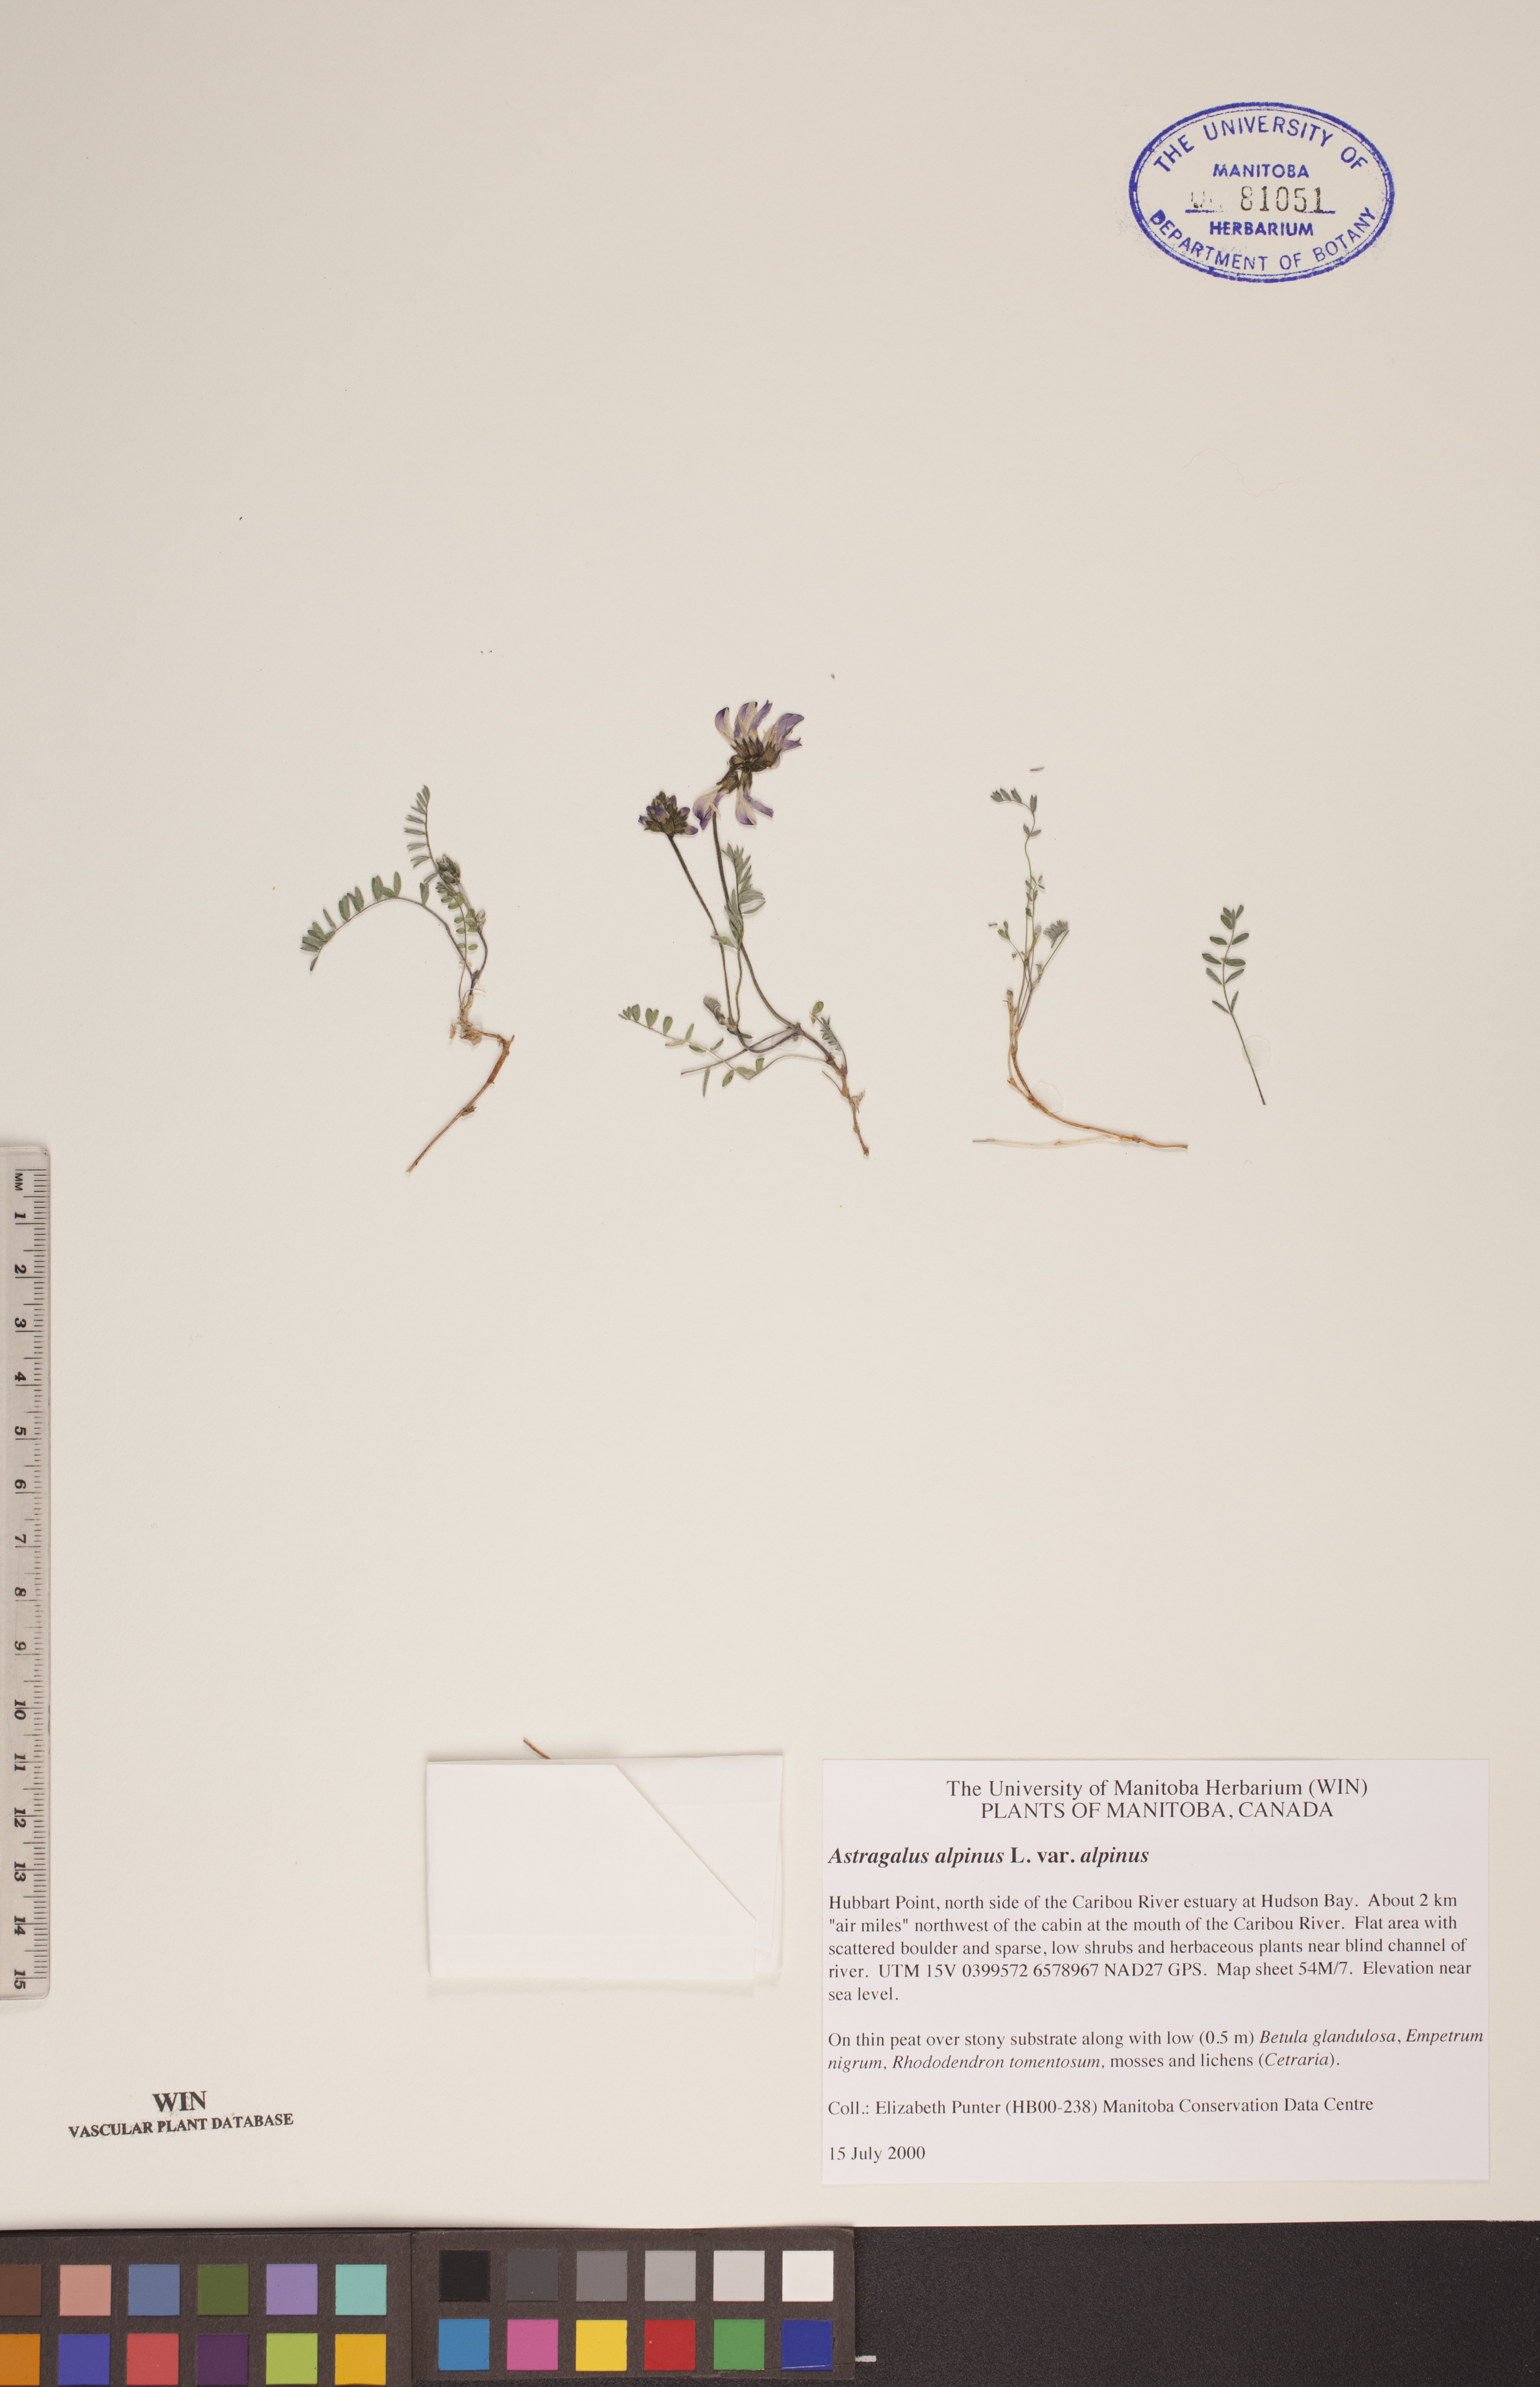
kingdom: Plantae
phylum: Tracheophyta
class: Magnoliopsida
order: Fabales
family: Fabaceae
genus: Astragalus
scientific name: Astragalus alpinus
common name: Alpine milk-vetch
